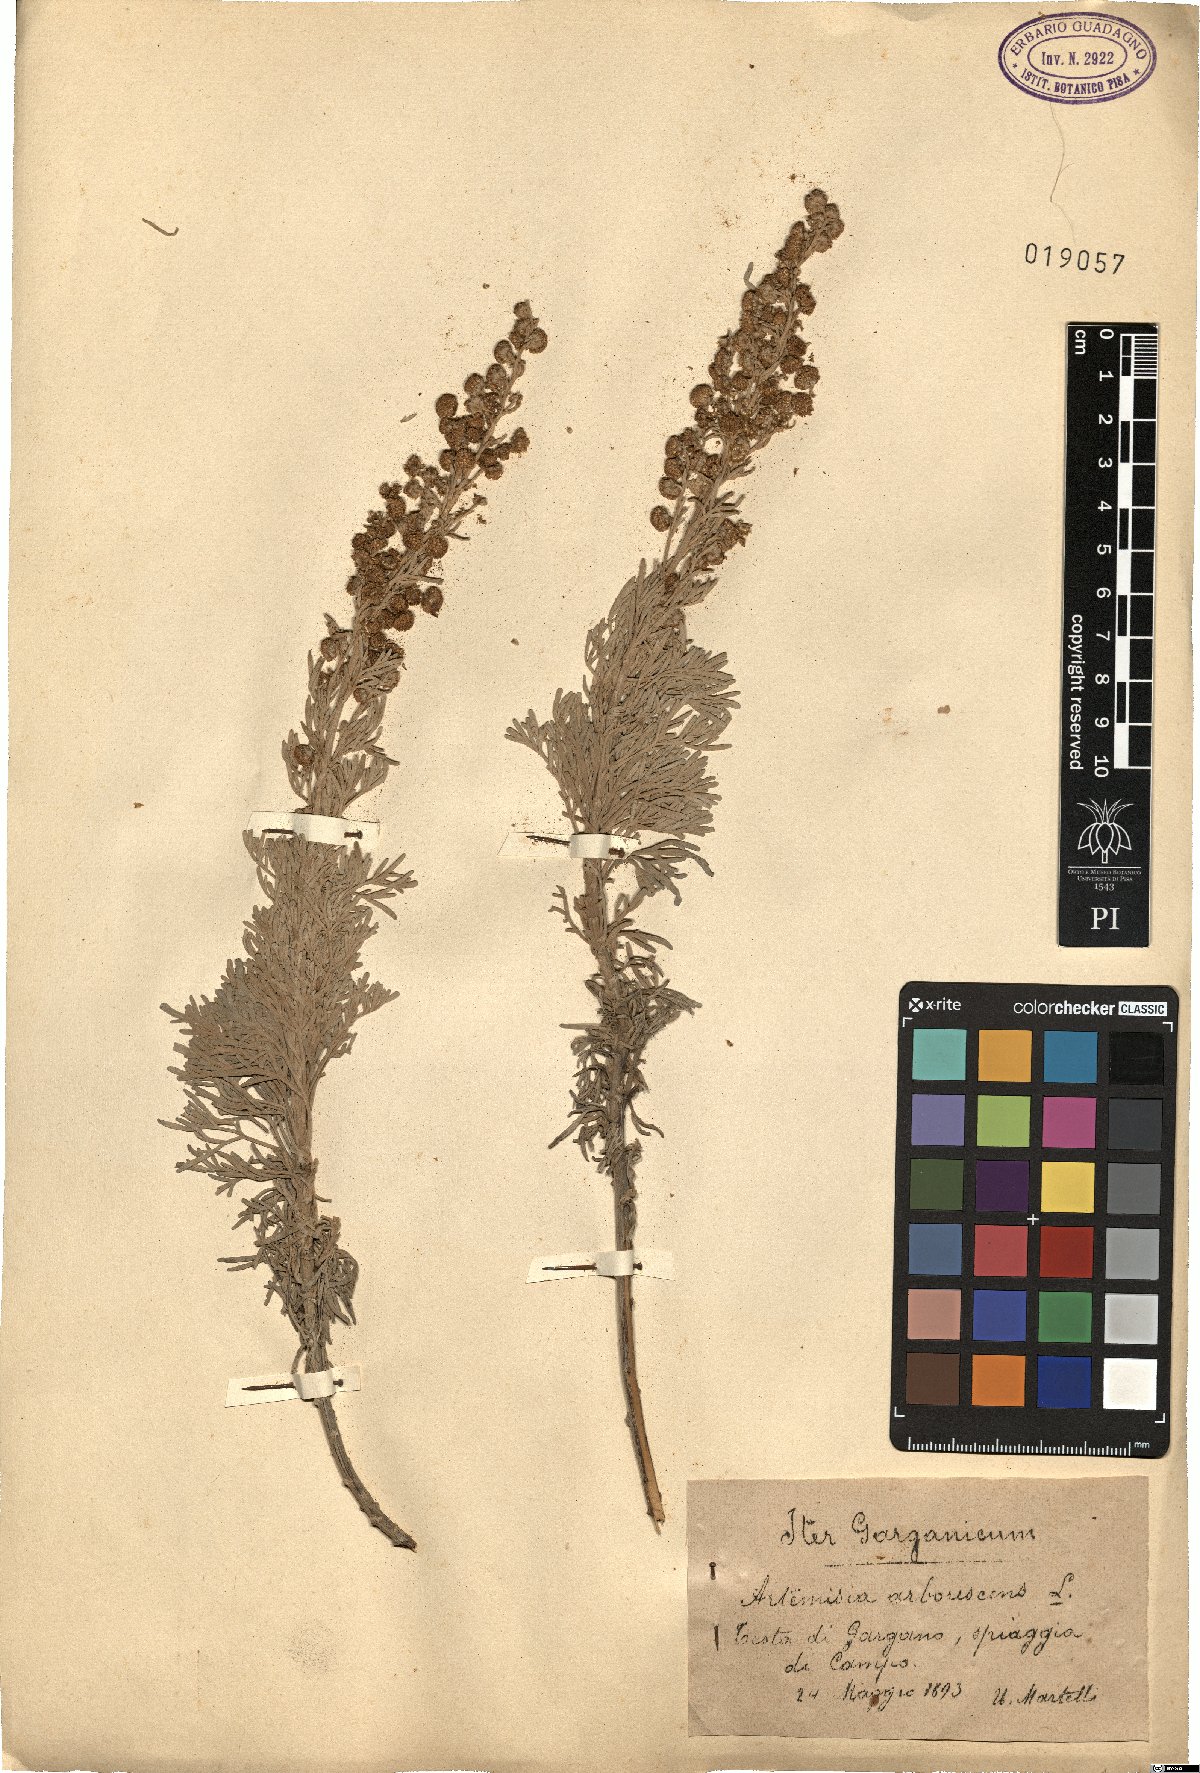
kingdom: Plantae
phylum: Tracheophyta
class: Magnoliopsida
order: Asterales
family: Asteraceae
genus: Artemisia
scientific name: Artemisia arborescens
